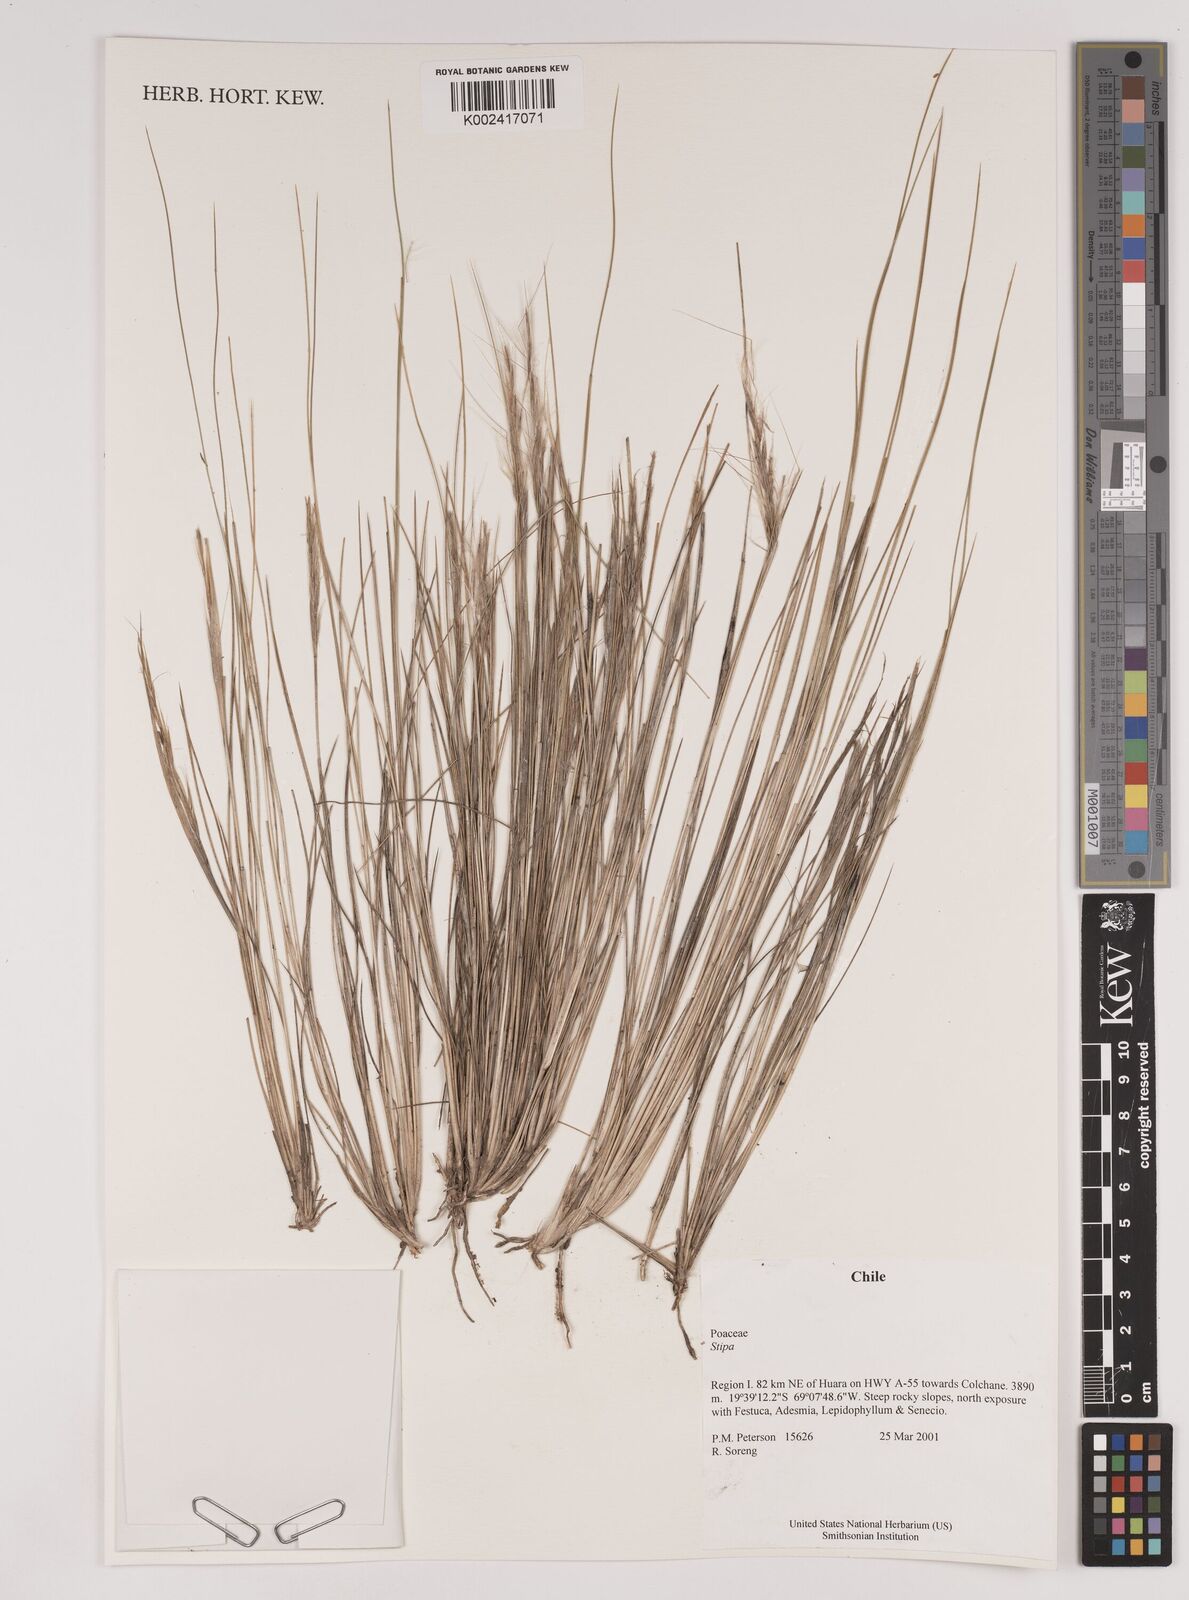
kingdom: Plantae
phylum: Tracheophyta
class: Liliopsida
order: Poales
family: Poaceae
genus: Pappostipa
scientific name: Pappostipa atacamensis
